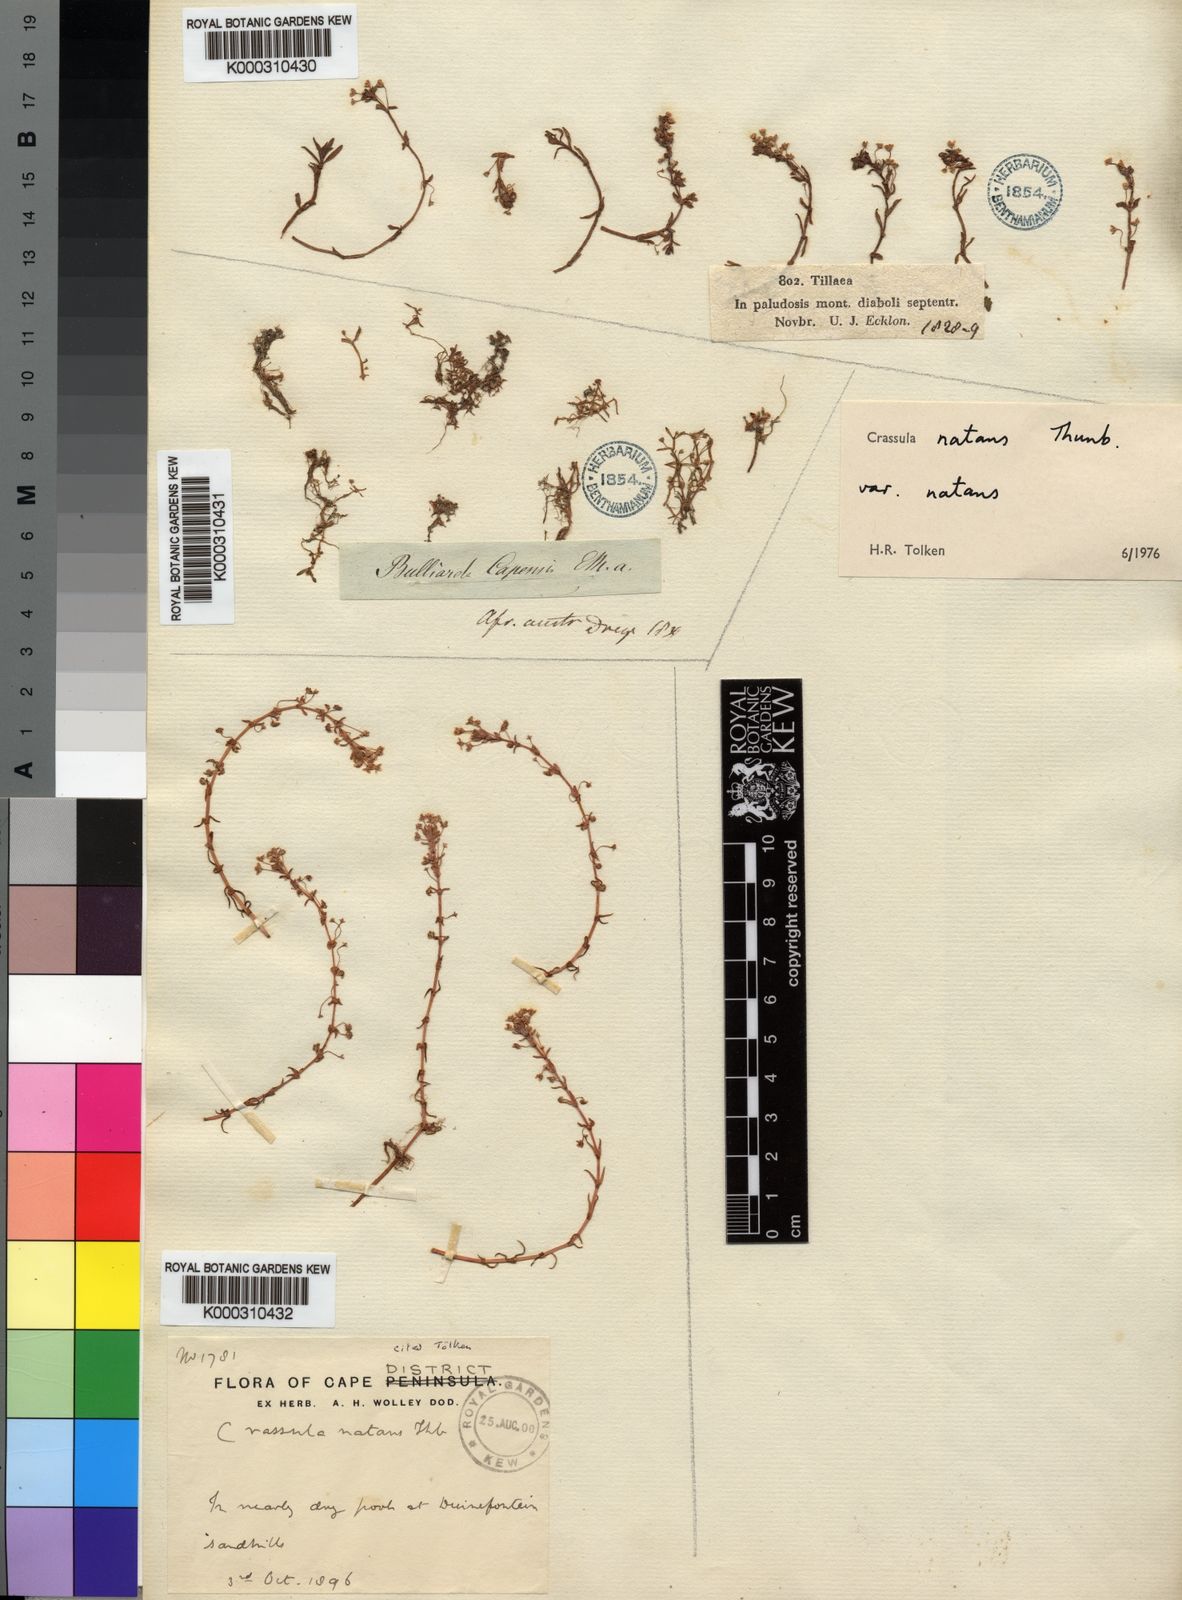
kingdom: Plantae
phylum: Tracheophyta
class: Magnoliopsida
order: Saxifragales
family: Crassulaceae
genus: Crassula
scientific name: Crassula natans
